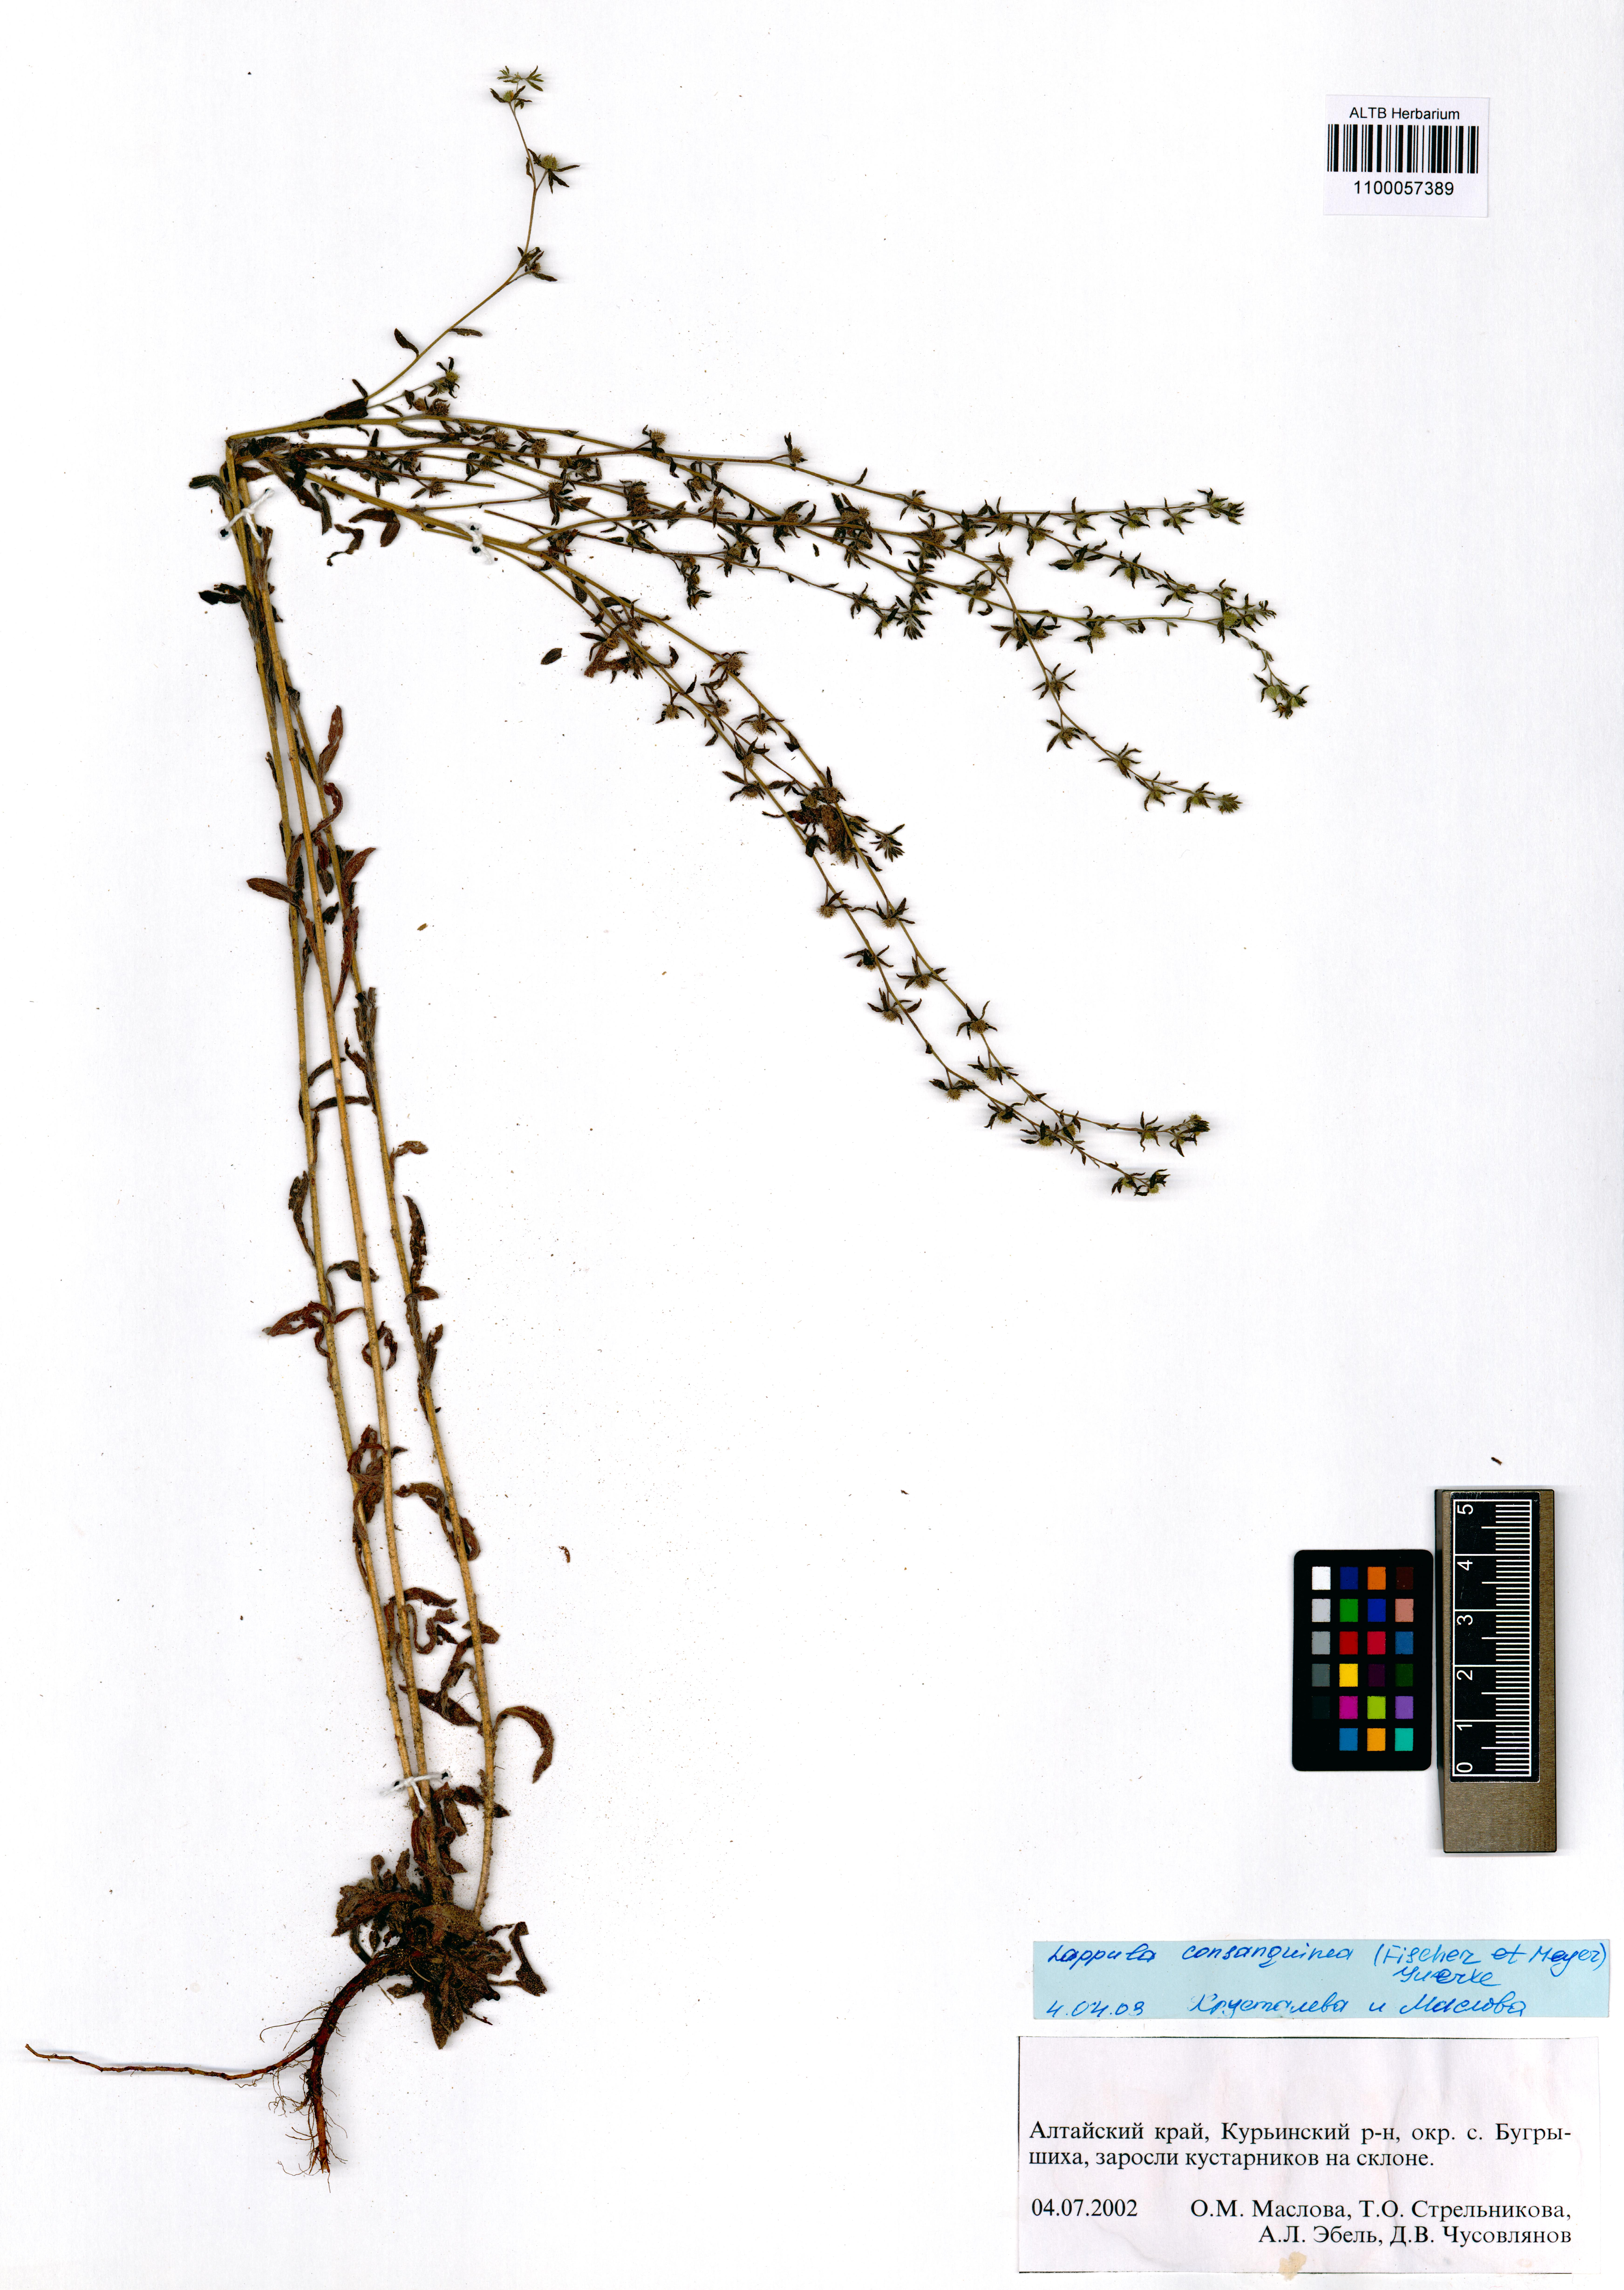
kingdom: Plantae
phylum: Tracheophyta
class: Magnoliopsida
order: Boraginales
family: Boraginaceae
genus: Lappula
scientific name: Lappula squarrosa
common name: European stickseed
